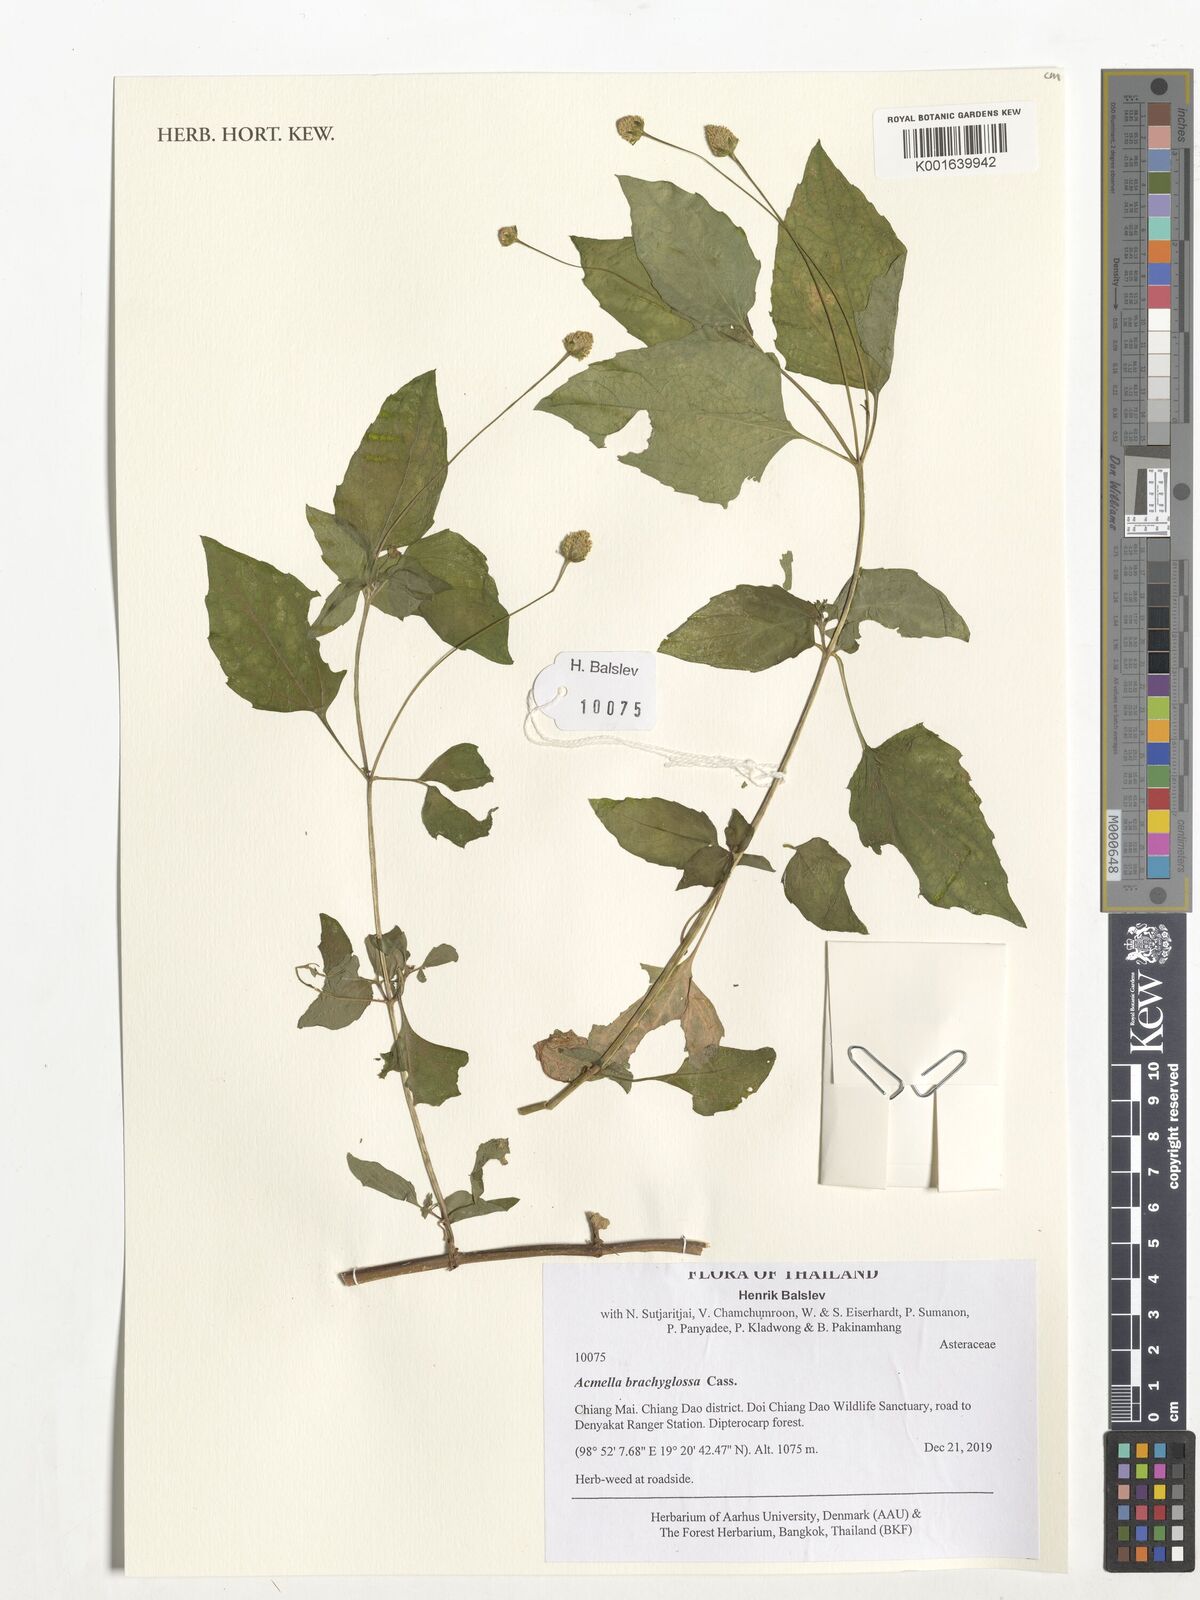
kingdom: Plantae
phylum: Tracheophyta
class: Magnoliopsida
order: Asterales
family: Asteraceae
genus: Acmella
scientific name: Acmella brachyglossa
